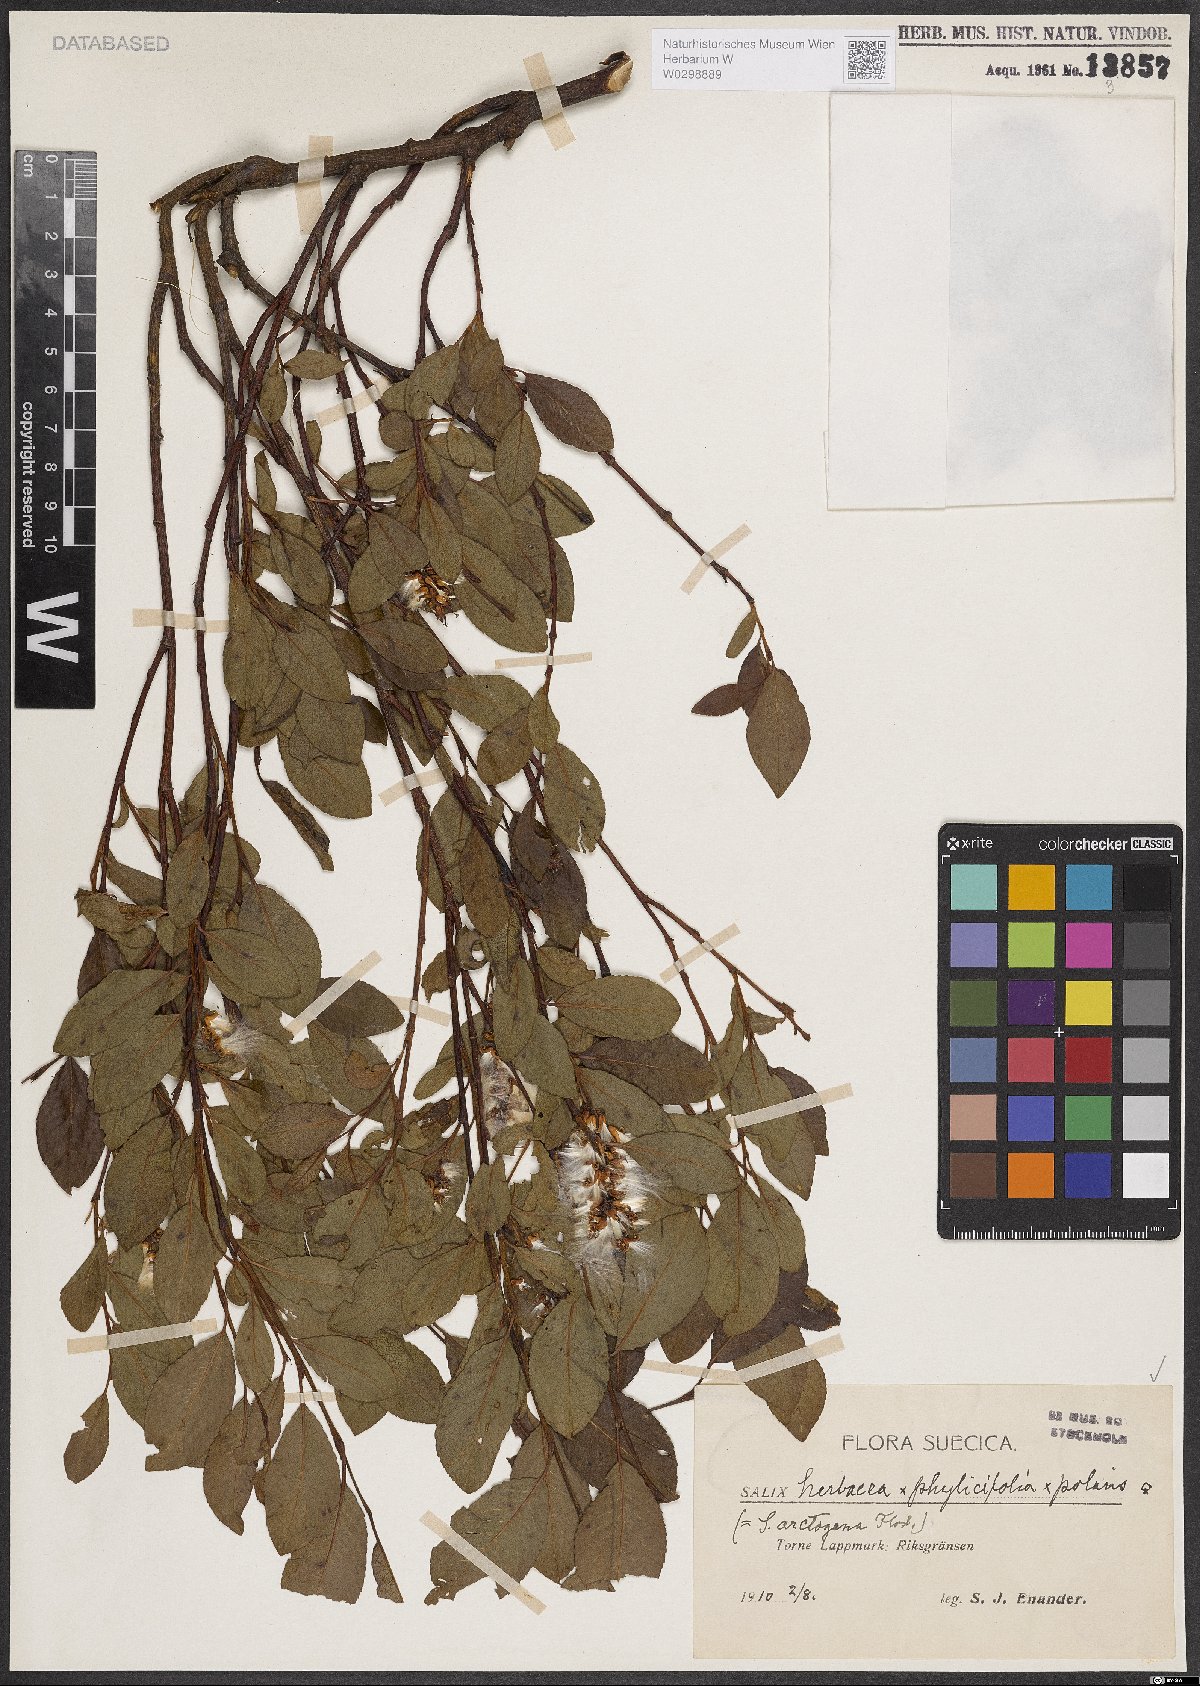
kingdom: Plantae
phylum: Tracheophyta
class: Magnoliopsida
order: Malpighiales
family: Salicaceae
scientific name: Salicaceae
